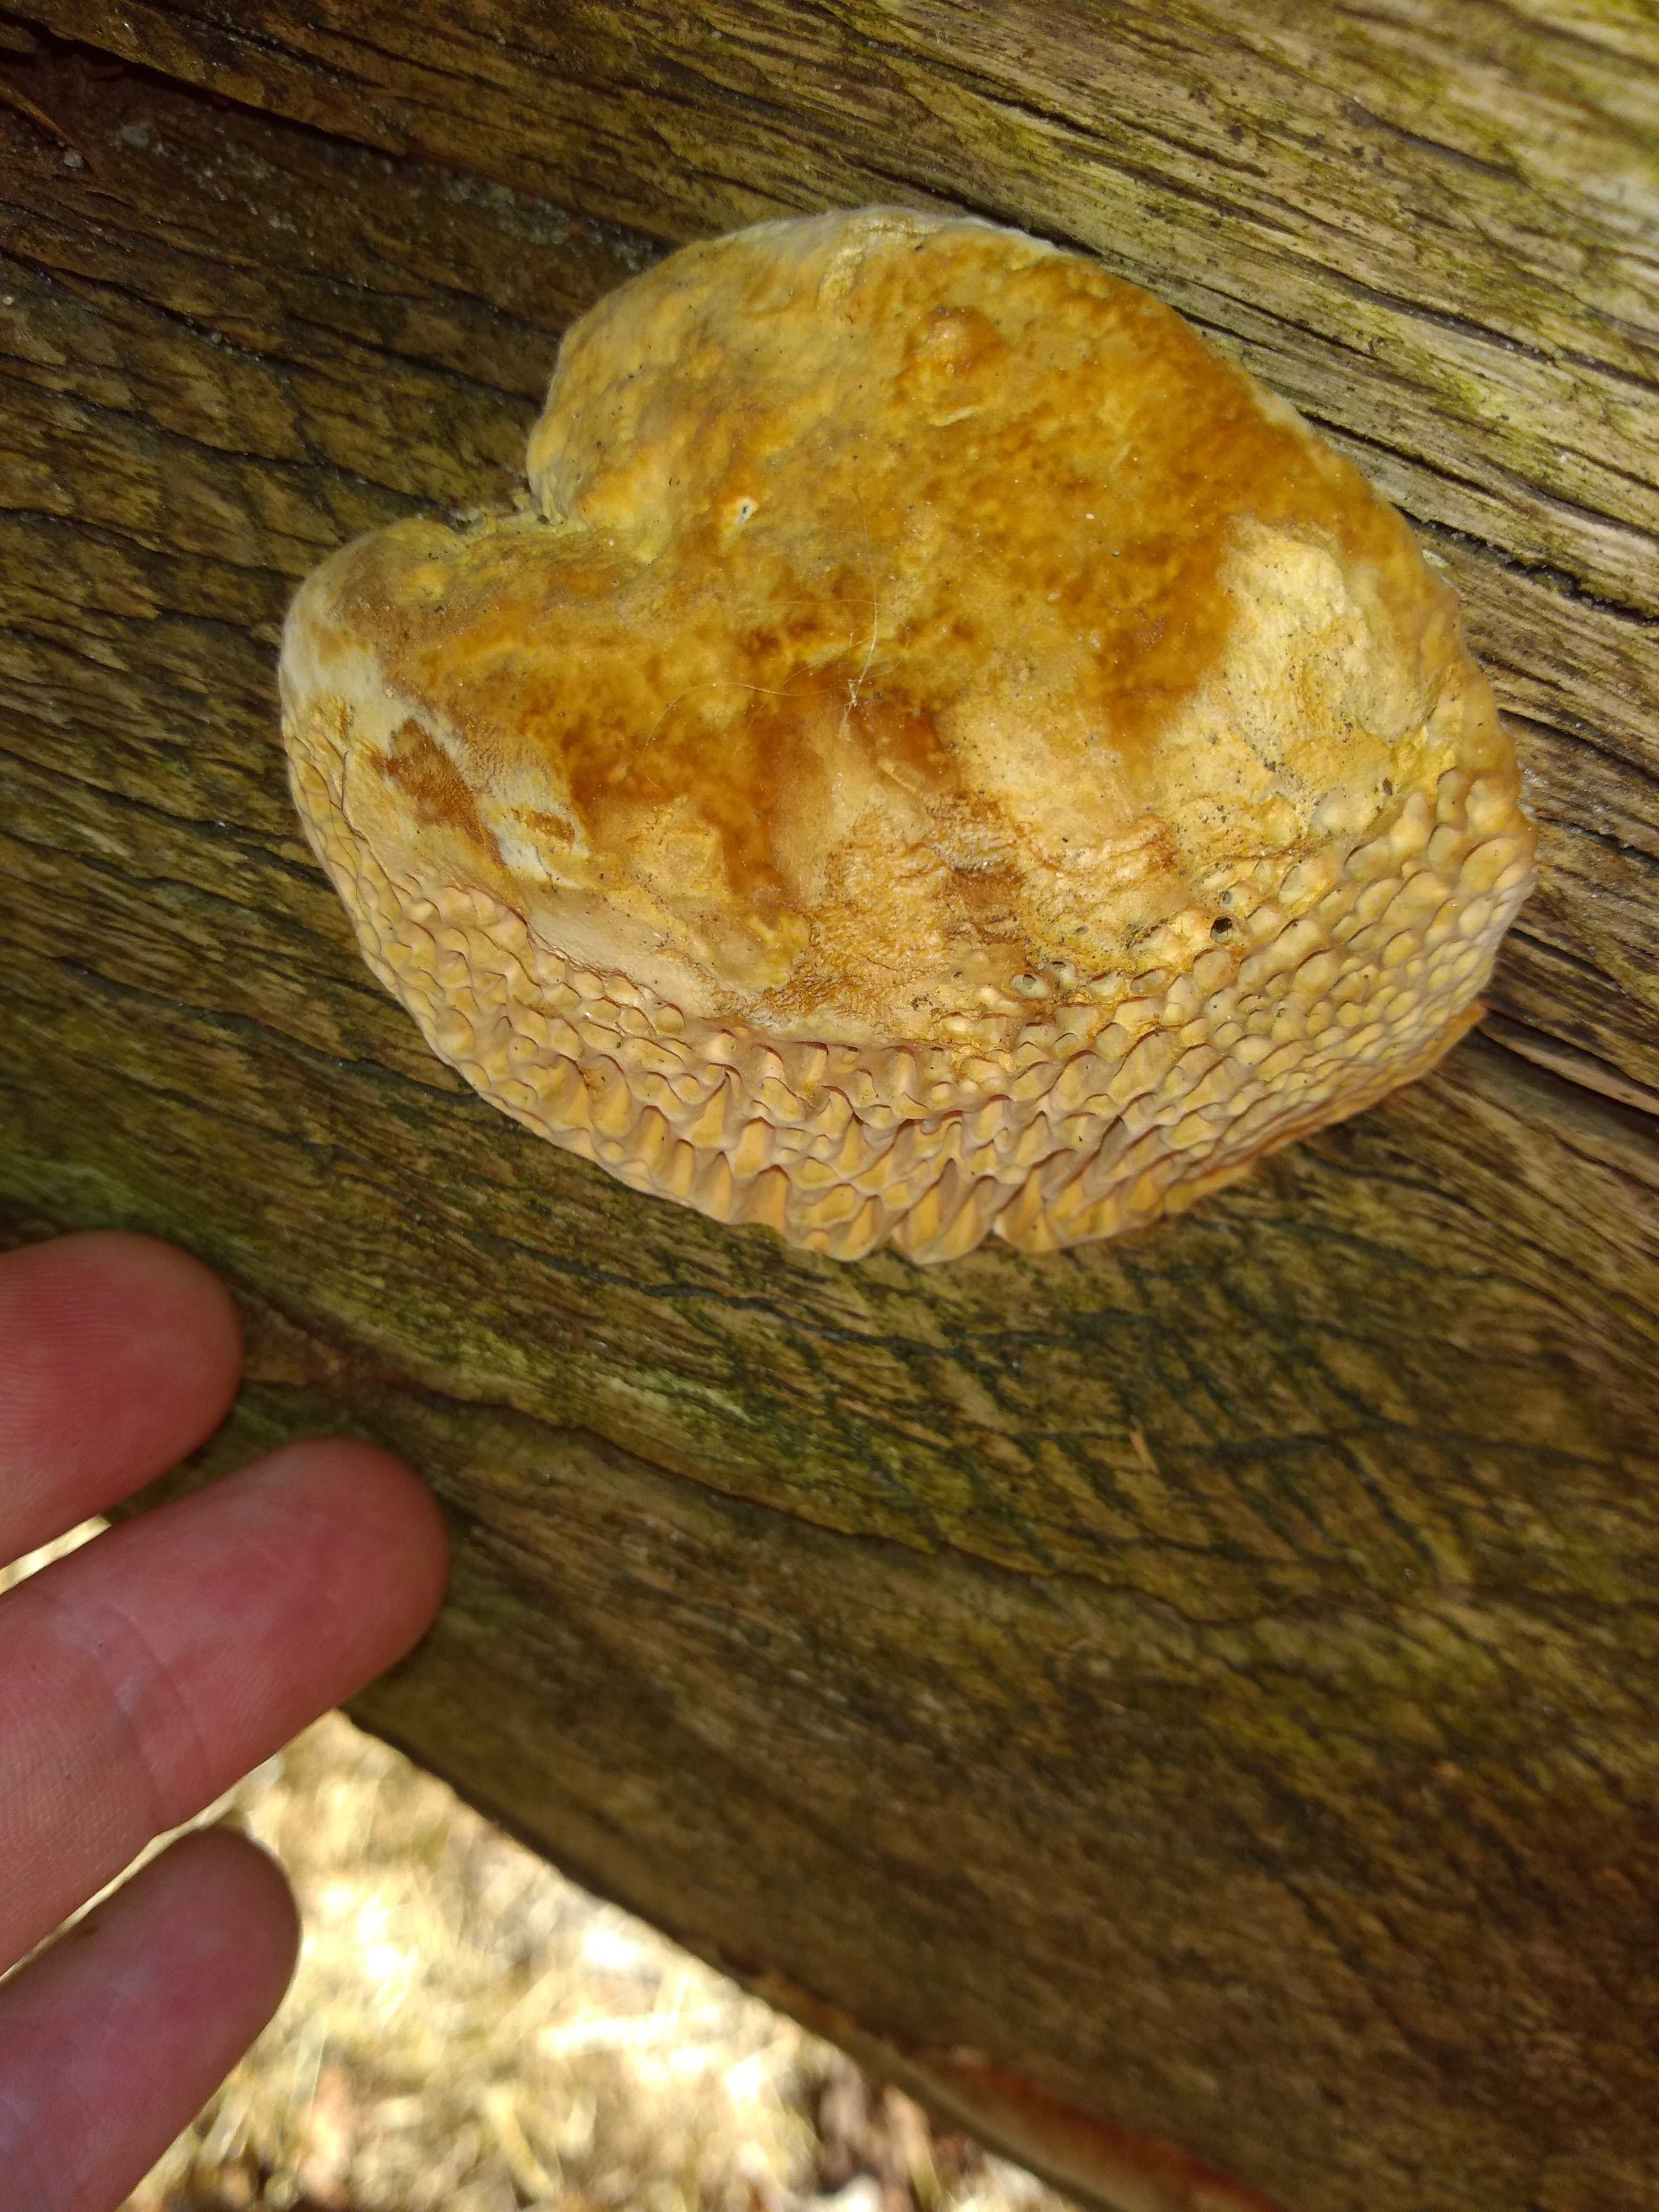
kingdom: Fungi
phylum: Basidiomycota
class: Agaricomycetes
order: Polyporales
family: Fomitopsidaceae
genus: Daedalea
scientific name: Daedalea quercina
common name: ege-labyrintsvamp
